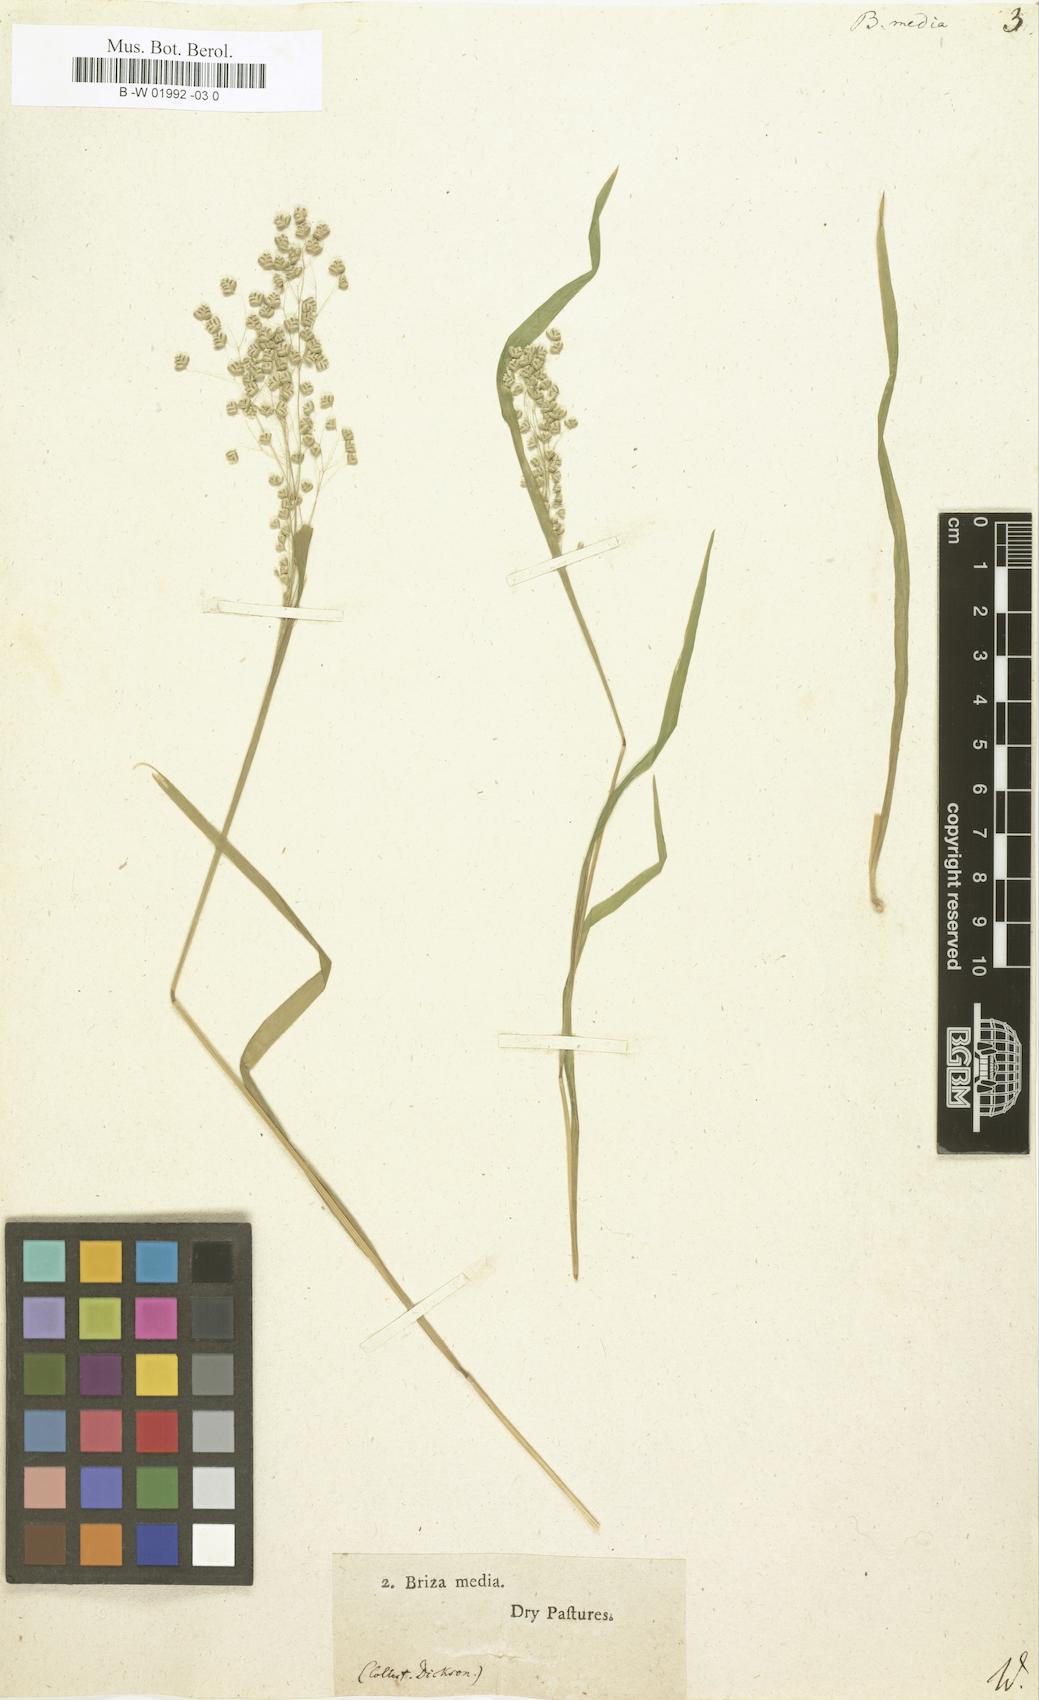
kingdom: Plantae
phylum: Tracheophyta
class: Liliopsida
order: Poales
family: Poaceae
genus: Briza
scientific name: Briza media
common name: Quaking grass
